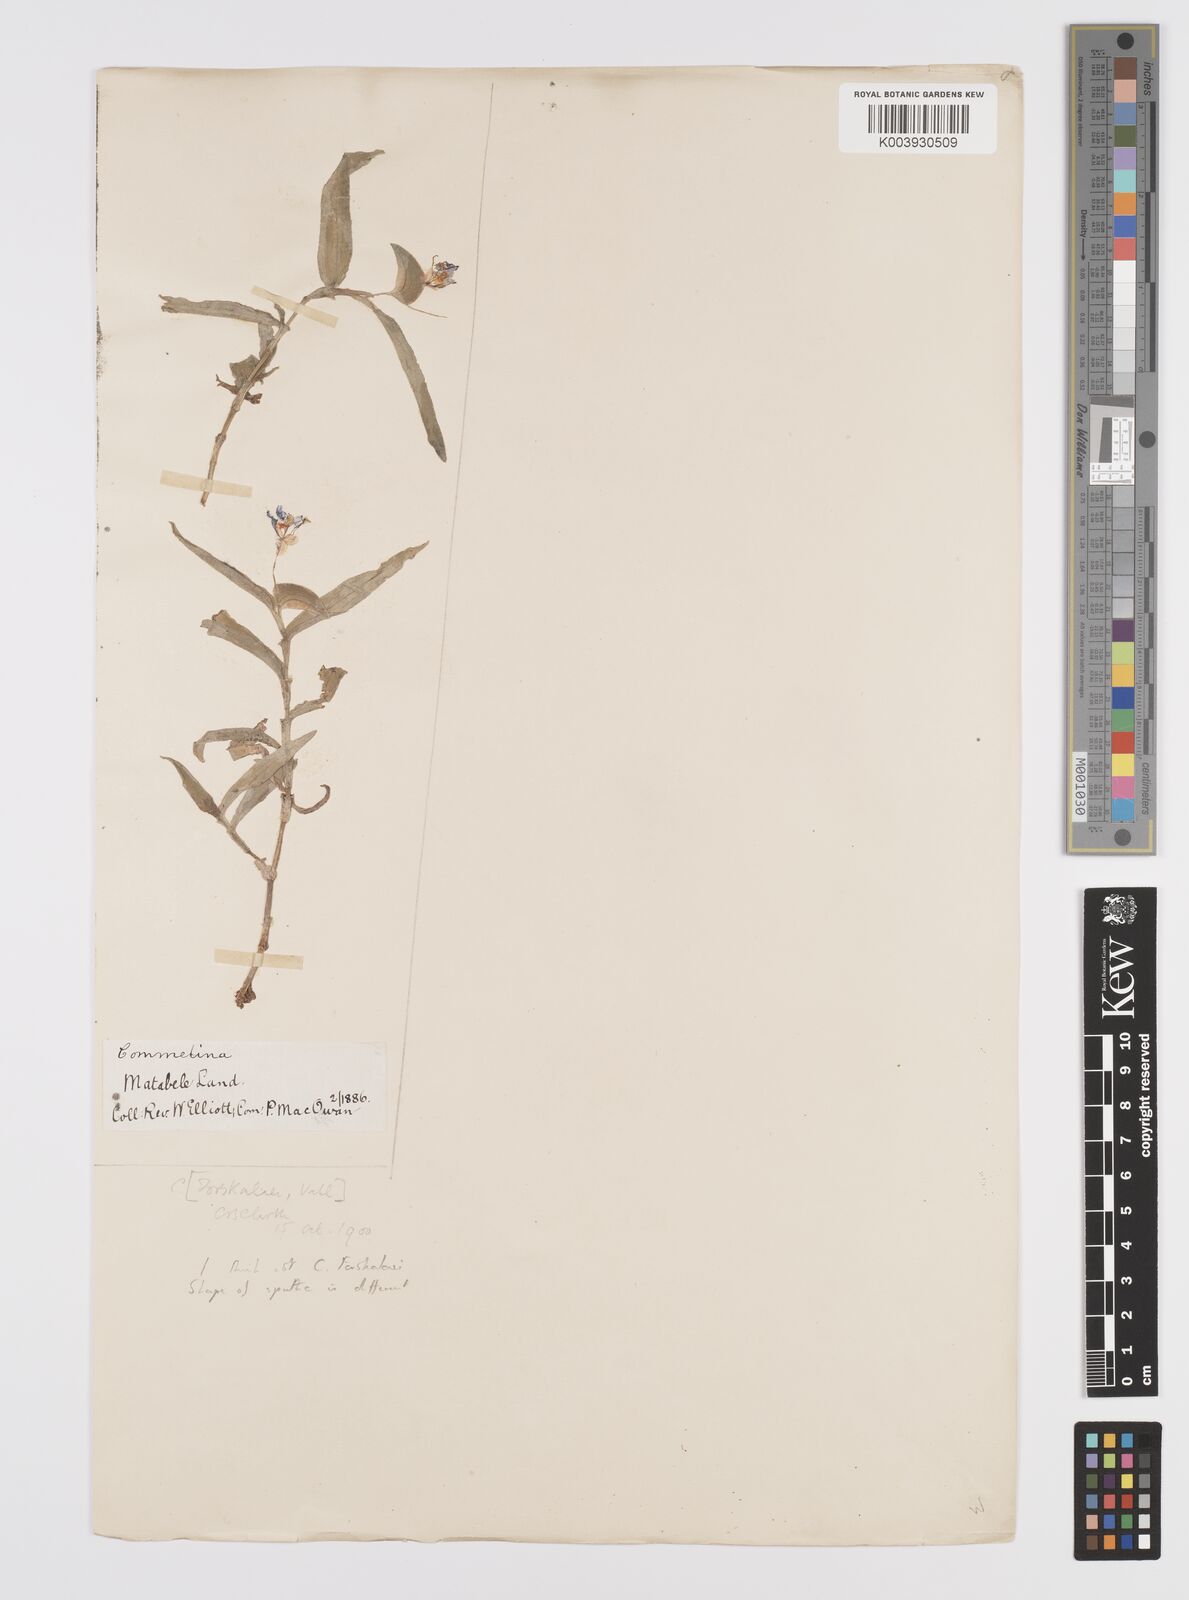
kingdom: Plantae
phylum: Tracheophyta
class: Liliopsida
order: Commelinales
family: Commelinaceae
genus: Commelina
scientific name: Commelina forskaolii
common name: Rat's ear
